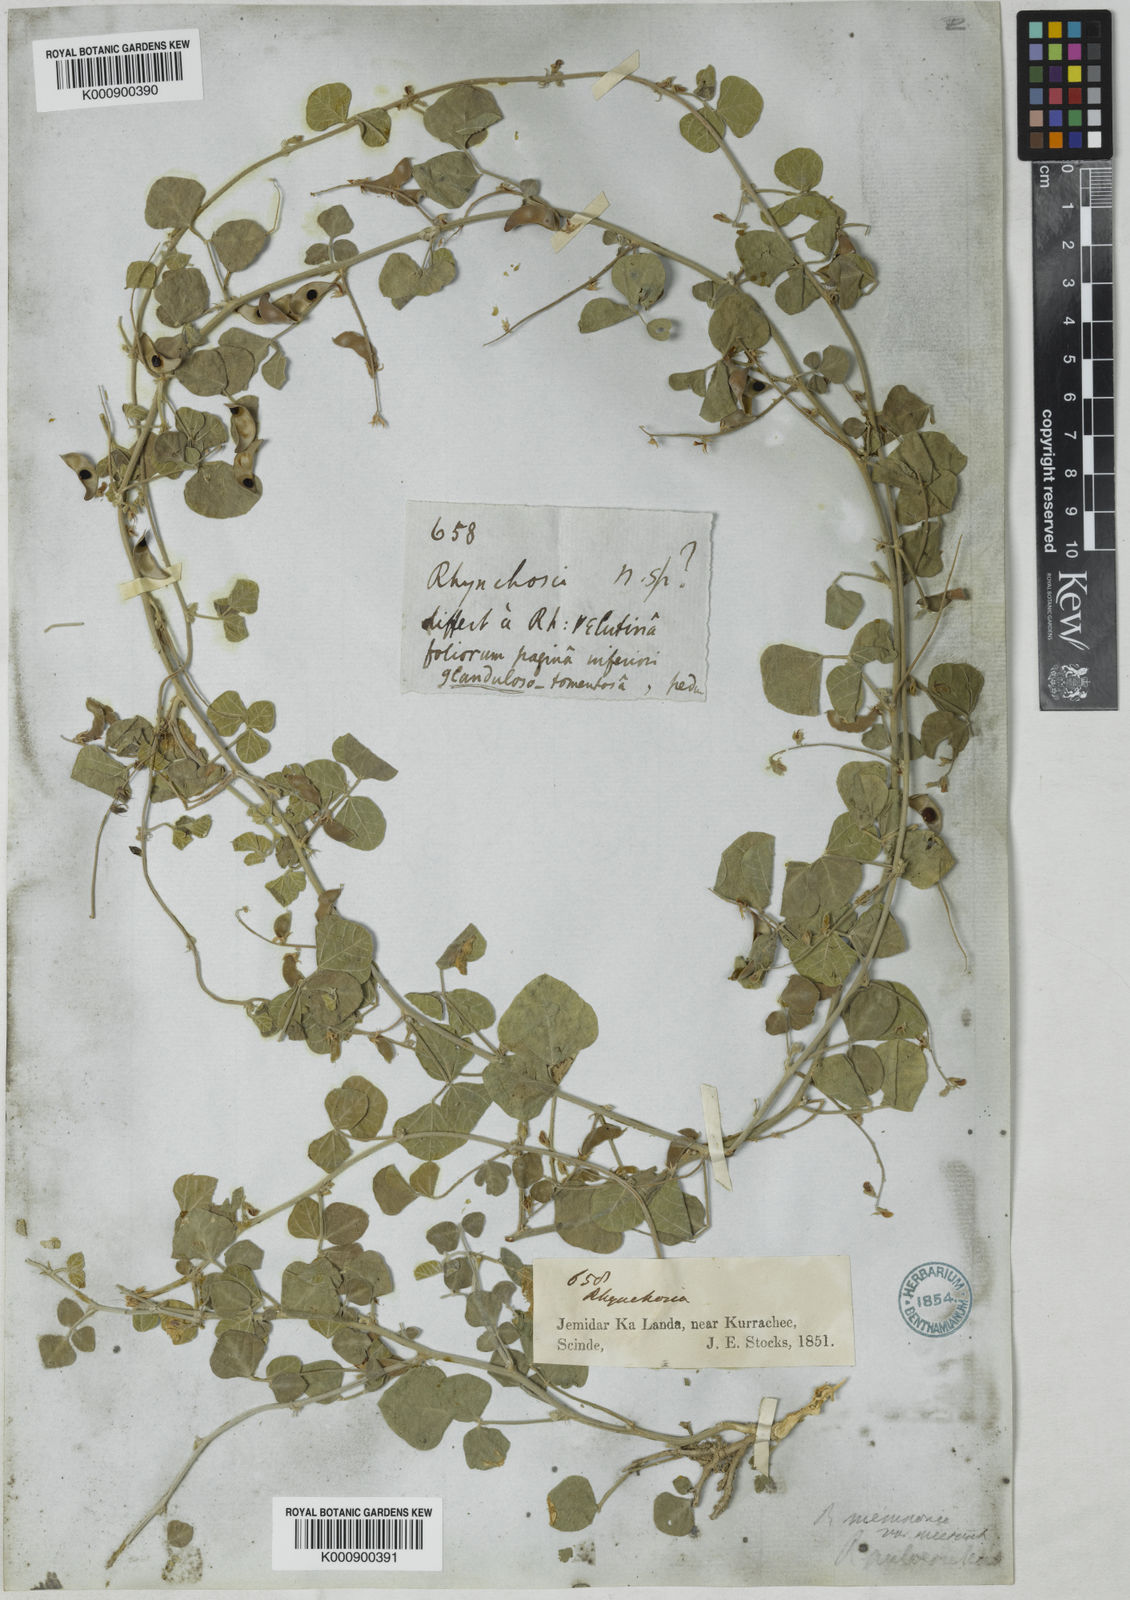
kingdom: Plantae
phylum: Tracheophyta
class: Magnoliopsida
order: Fabales
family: Fabaceae
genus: Rhynchosia
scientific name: Rhynchosia minima
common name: Least snoutbean
